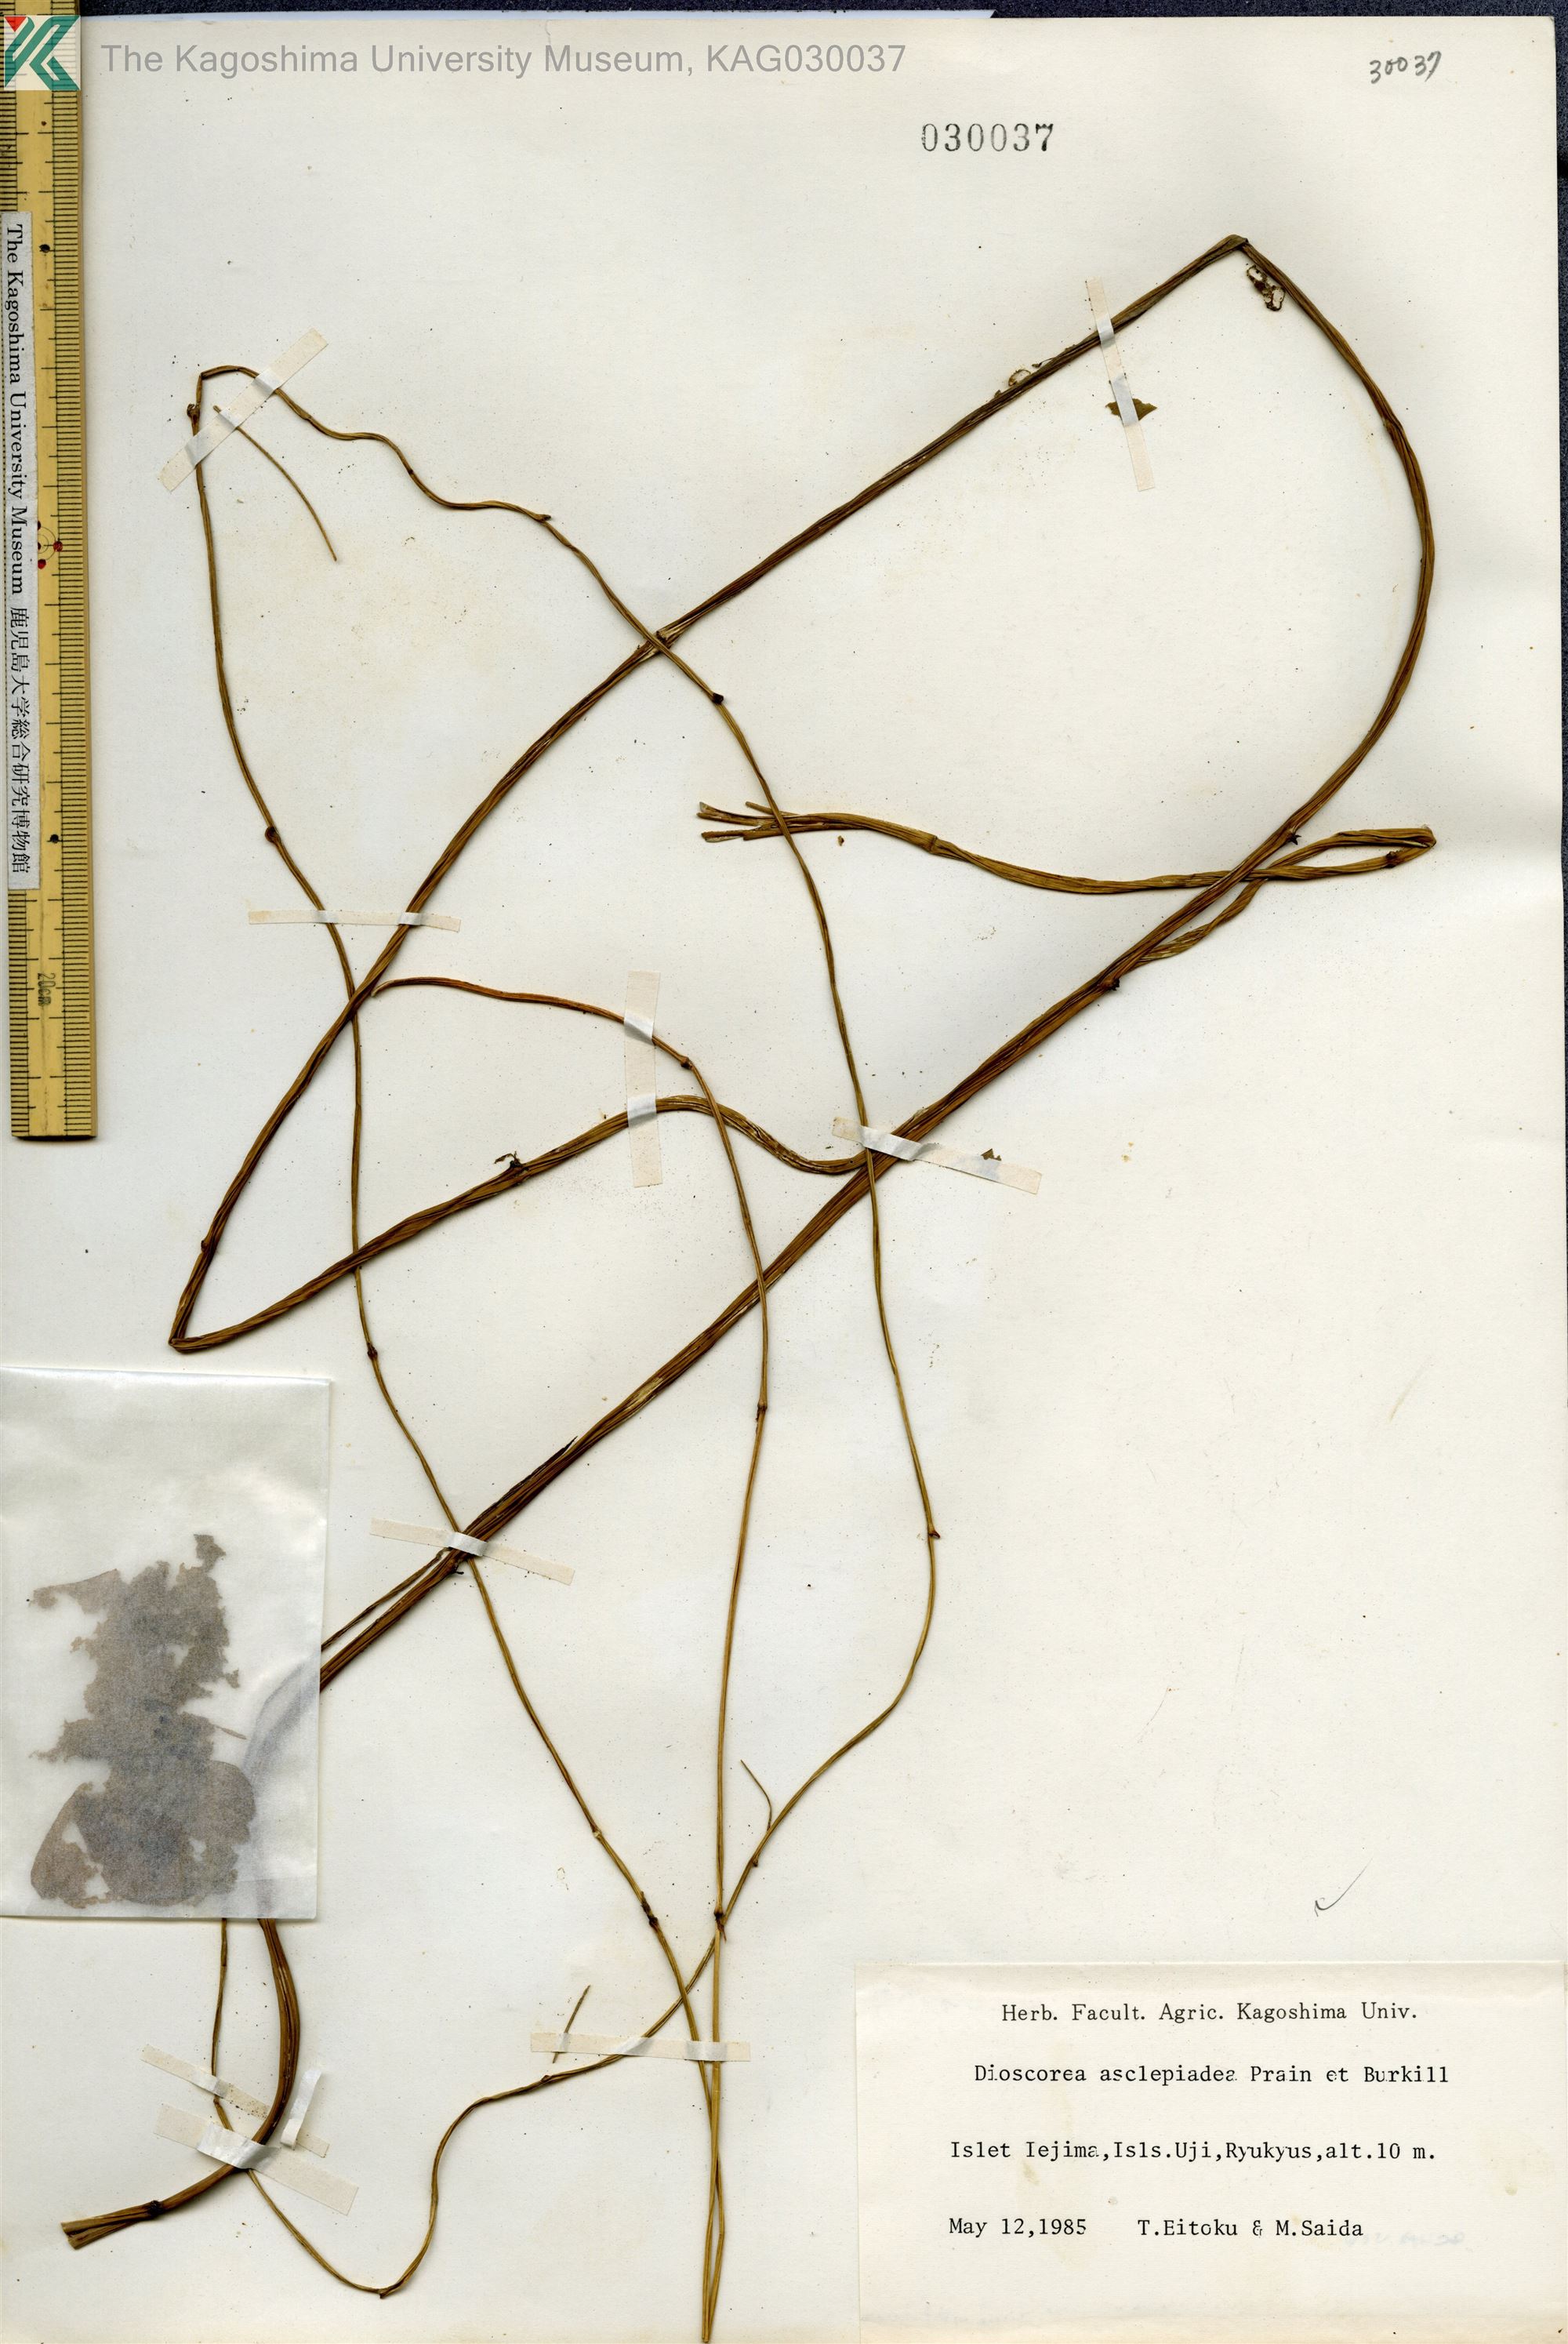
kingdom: Plantae
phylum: Tracheophyta
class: Liliopsida
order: Dioscoreales
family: Dioscoreaceae
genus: Dioscorea
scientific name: Dioscorea asclepiadea
